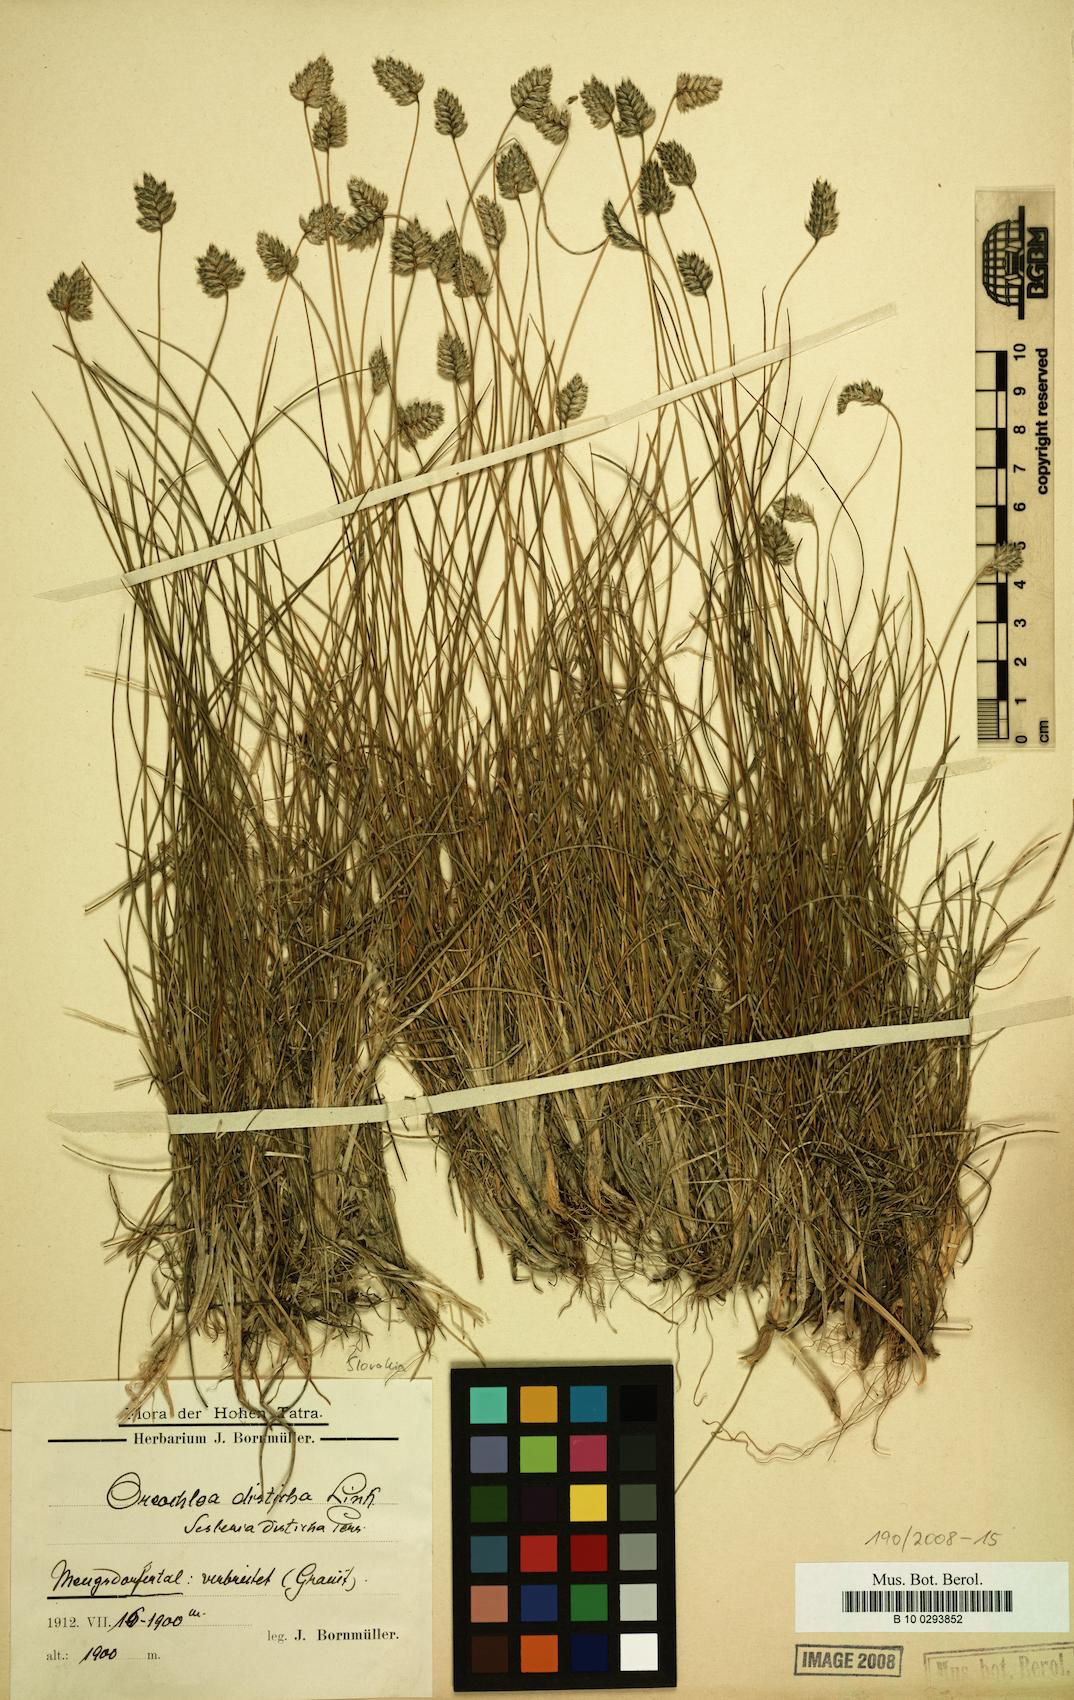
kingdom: Plantae
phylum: Tracheophyta
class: Liliopsida
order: Poales
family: Poaceae
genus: Oreochloa
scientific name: Oreochloa disticha
